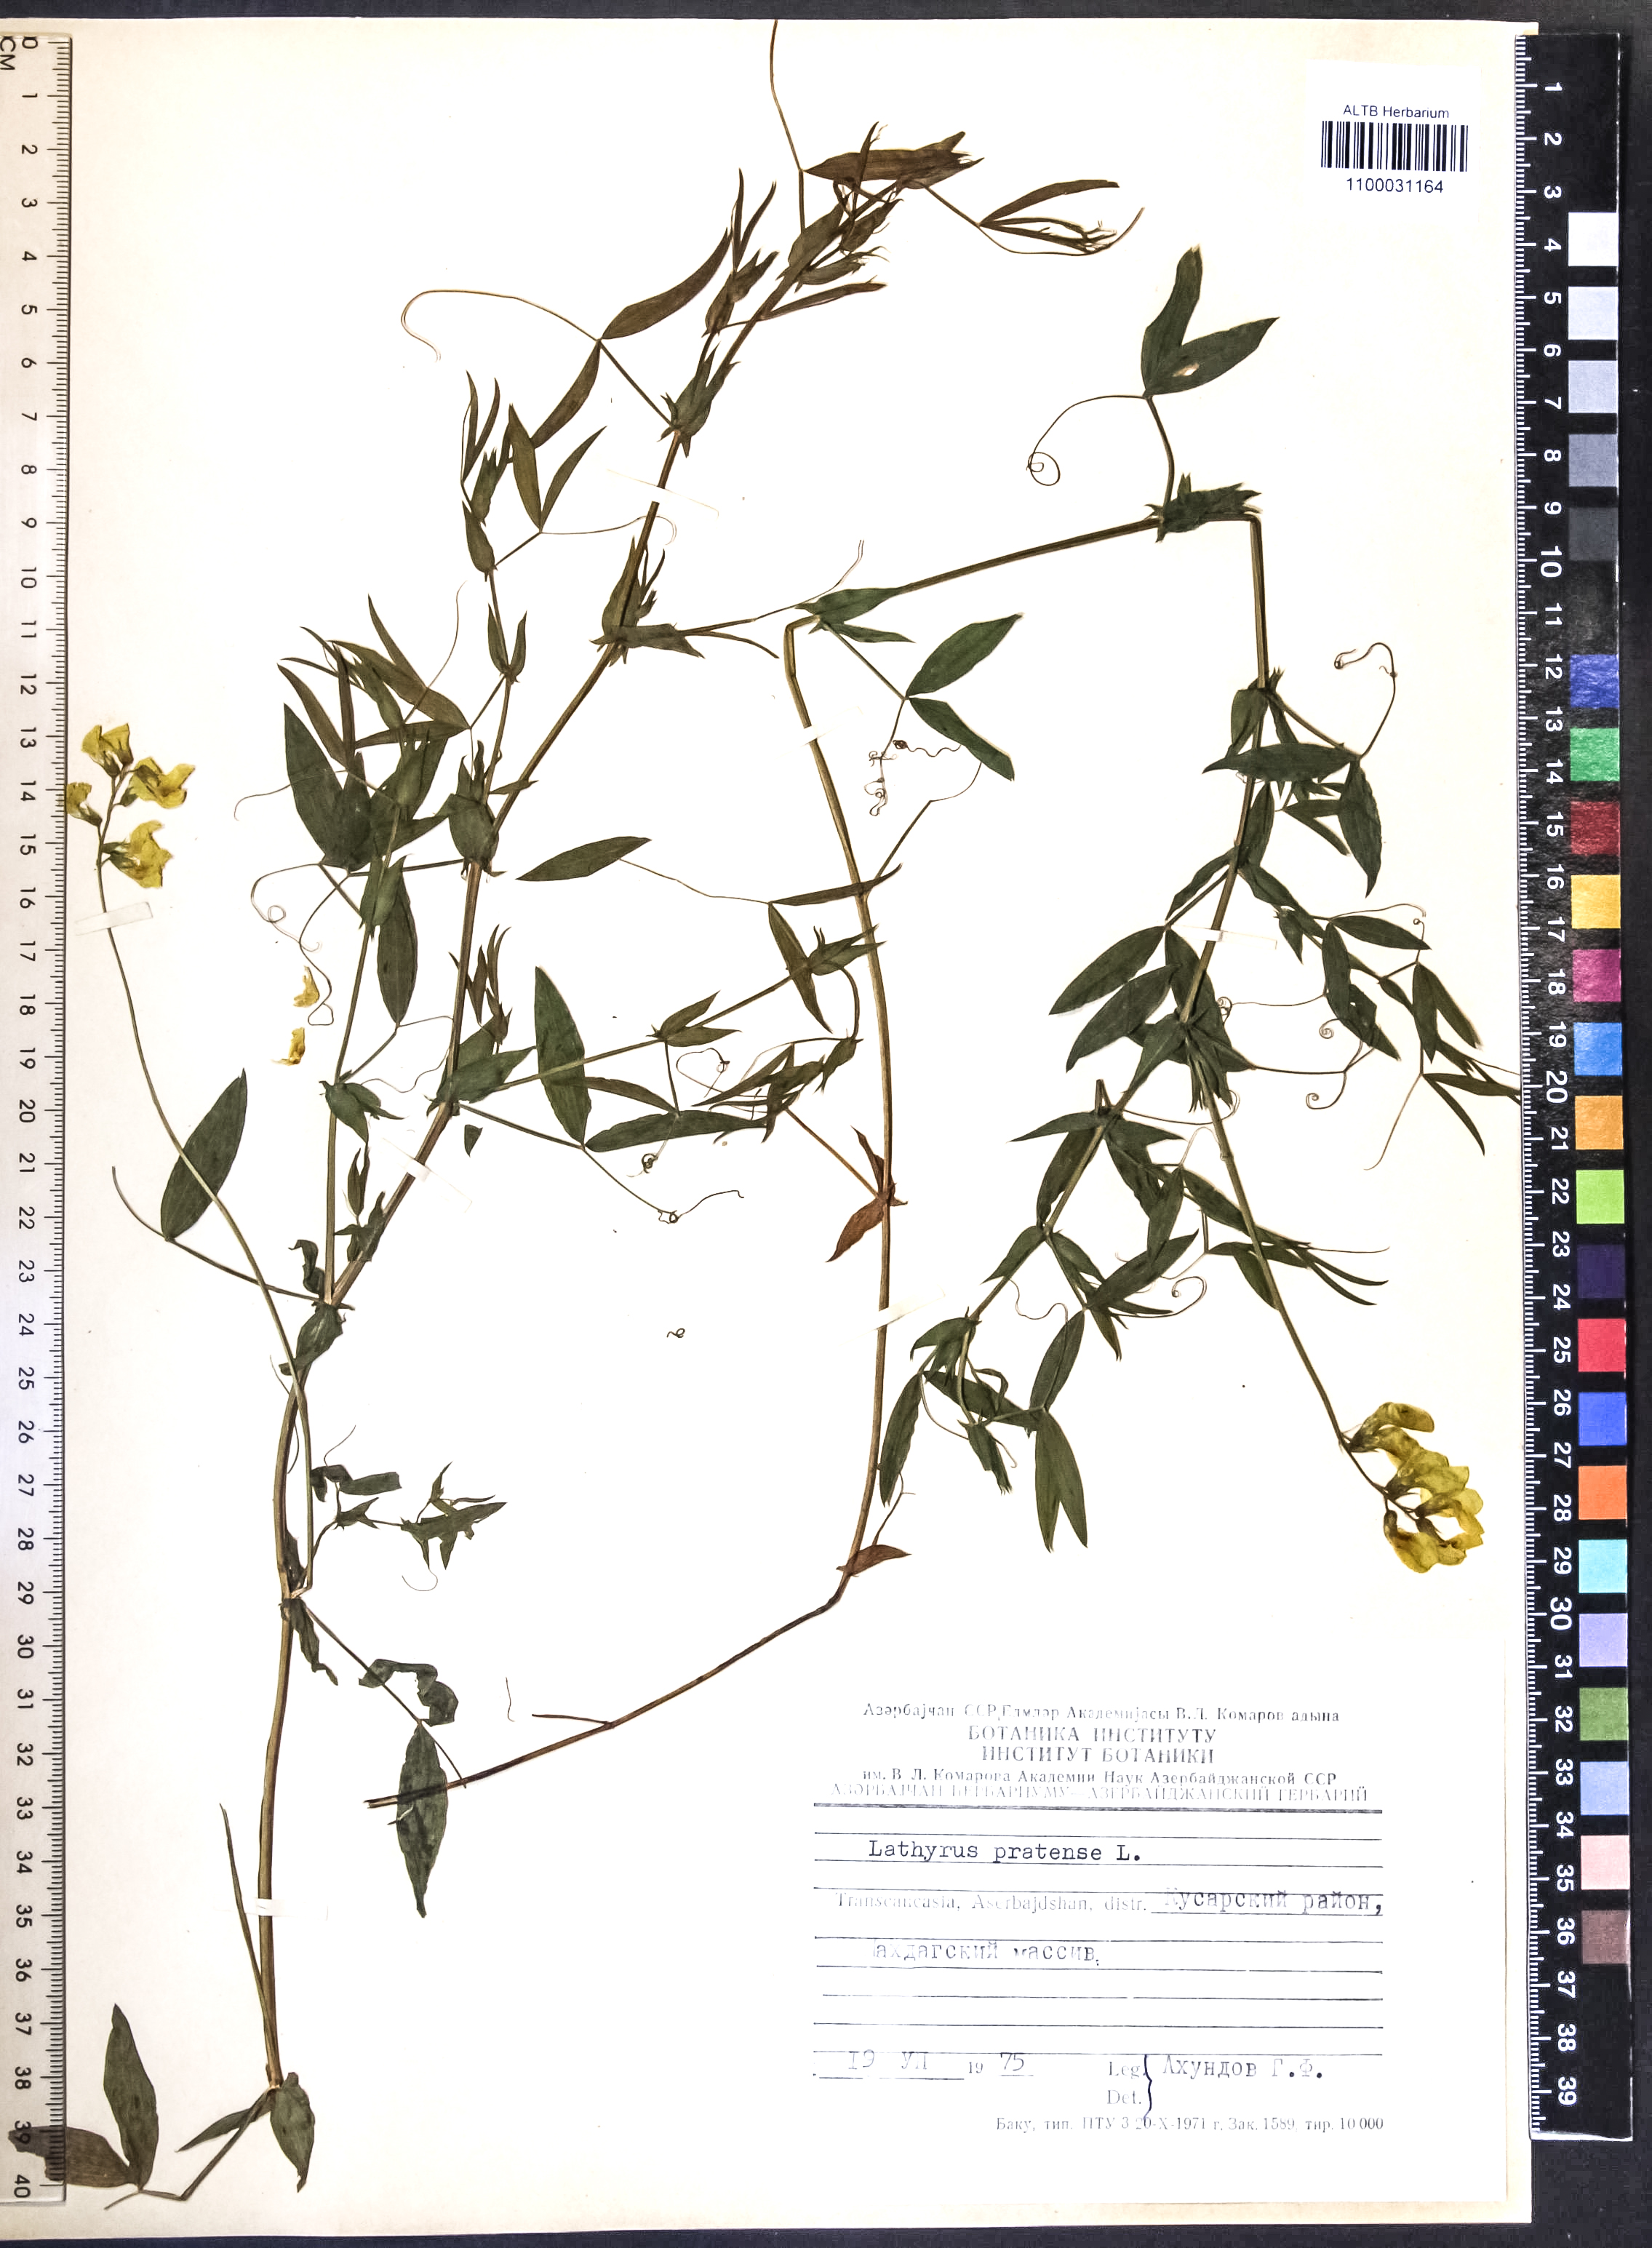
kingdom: Plantae
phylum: Tracheophyta
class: Magnoliopsida
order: Fabales
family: Fabaceae
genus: Lathyrus
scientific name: Lathyrus pratensis
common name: Meadow vetchling
